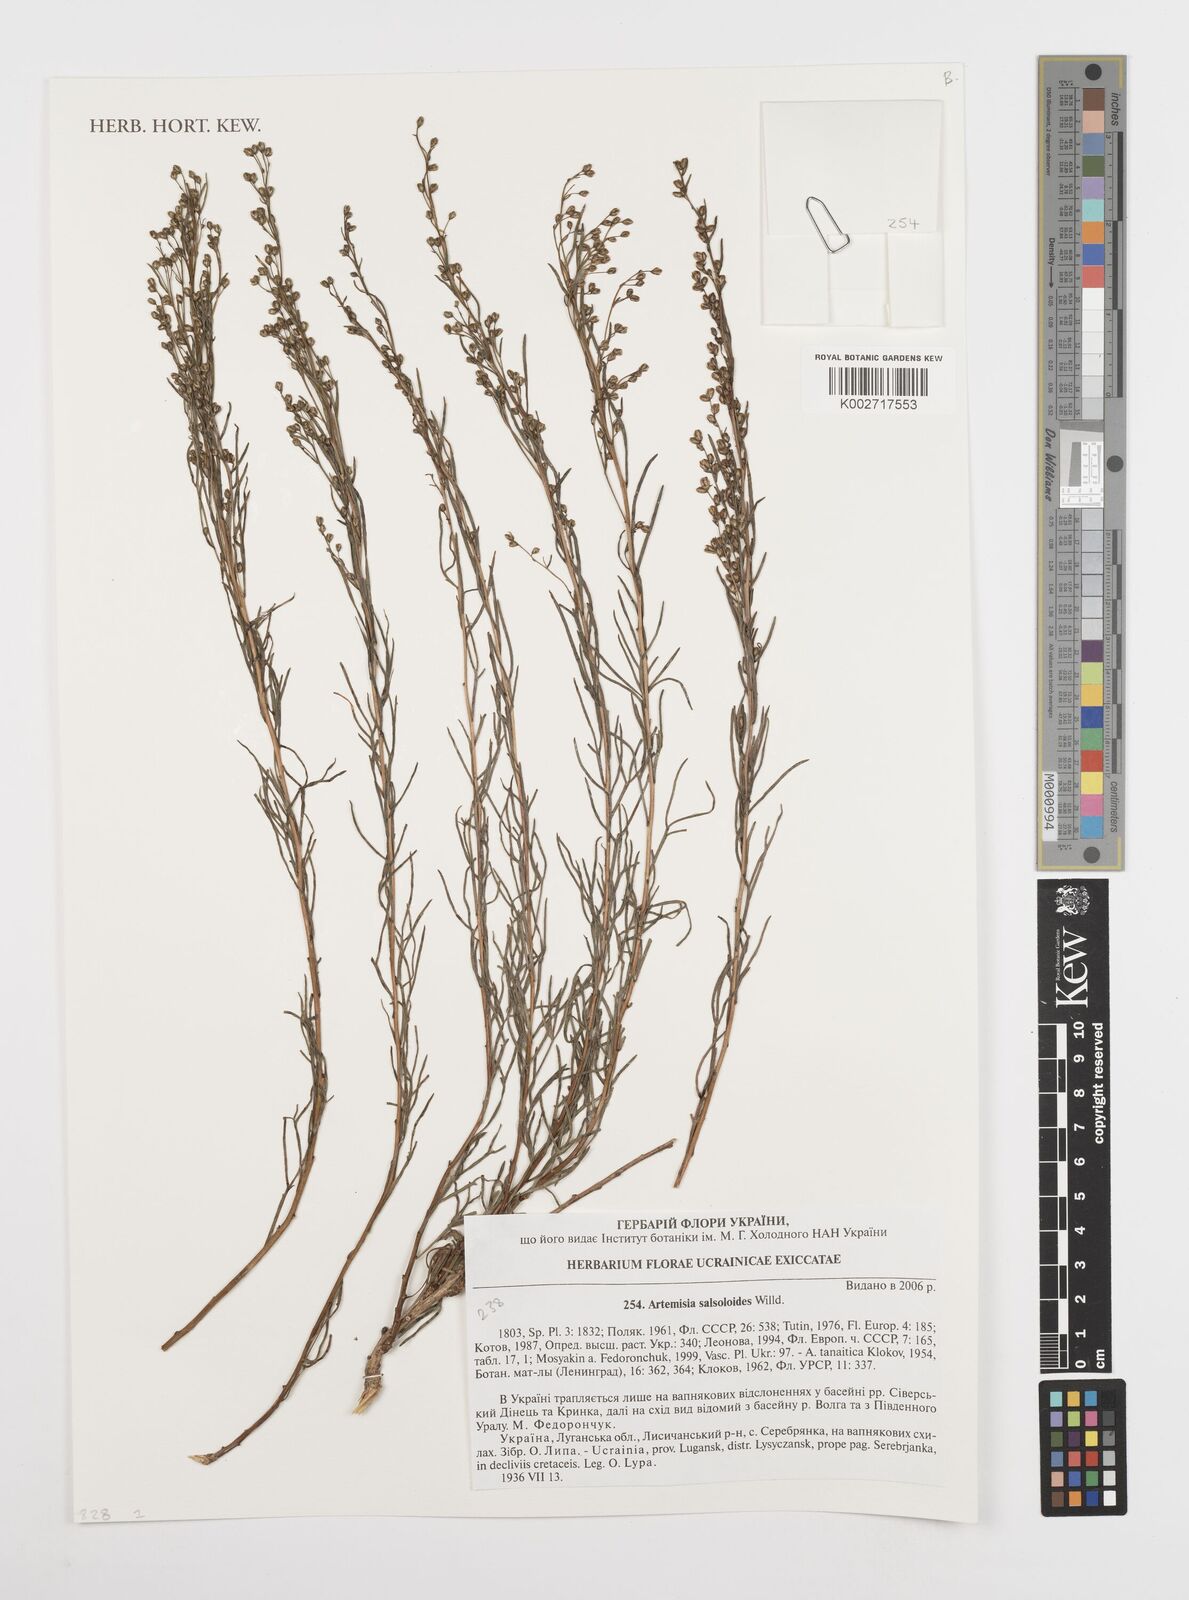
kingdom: Plantae
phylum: Tracheophyta
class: Magnoliopsida
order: Asterales
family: Asteraceae
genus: Artemisia
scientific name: Artemisia salsoloides
